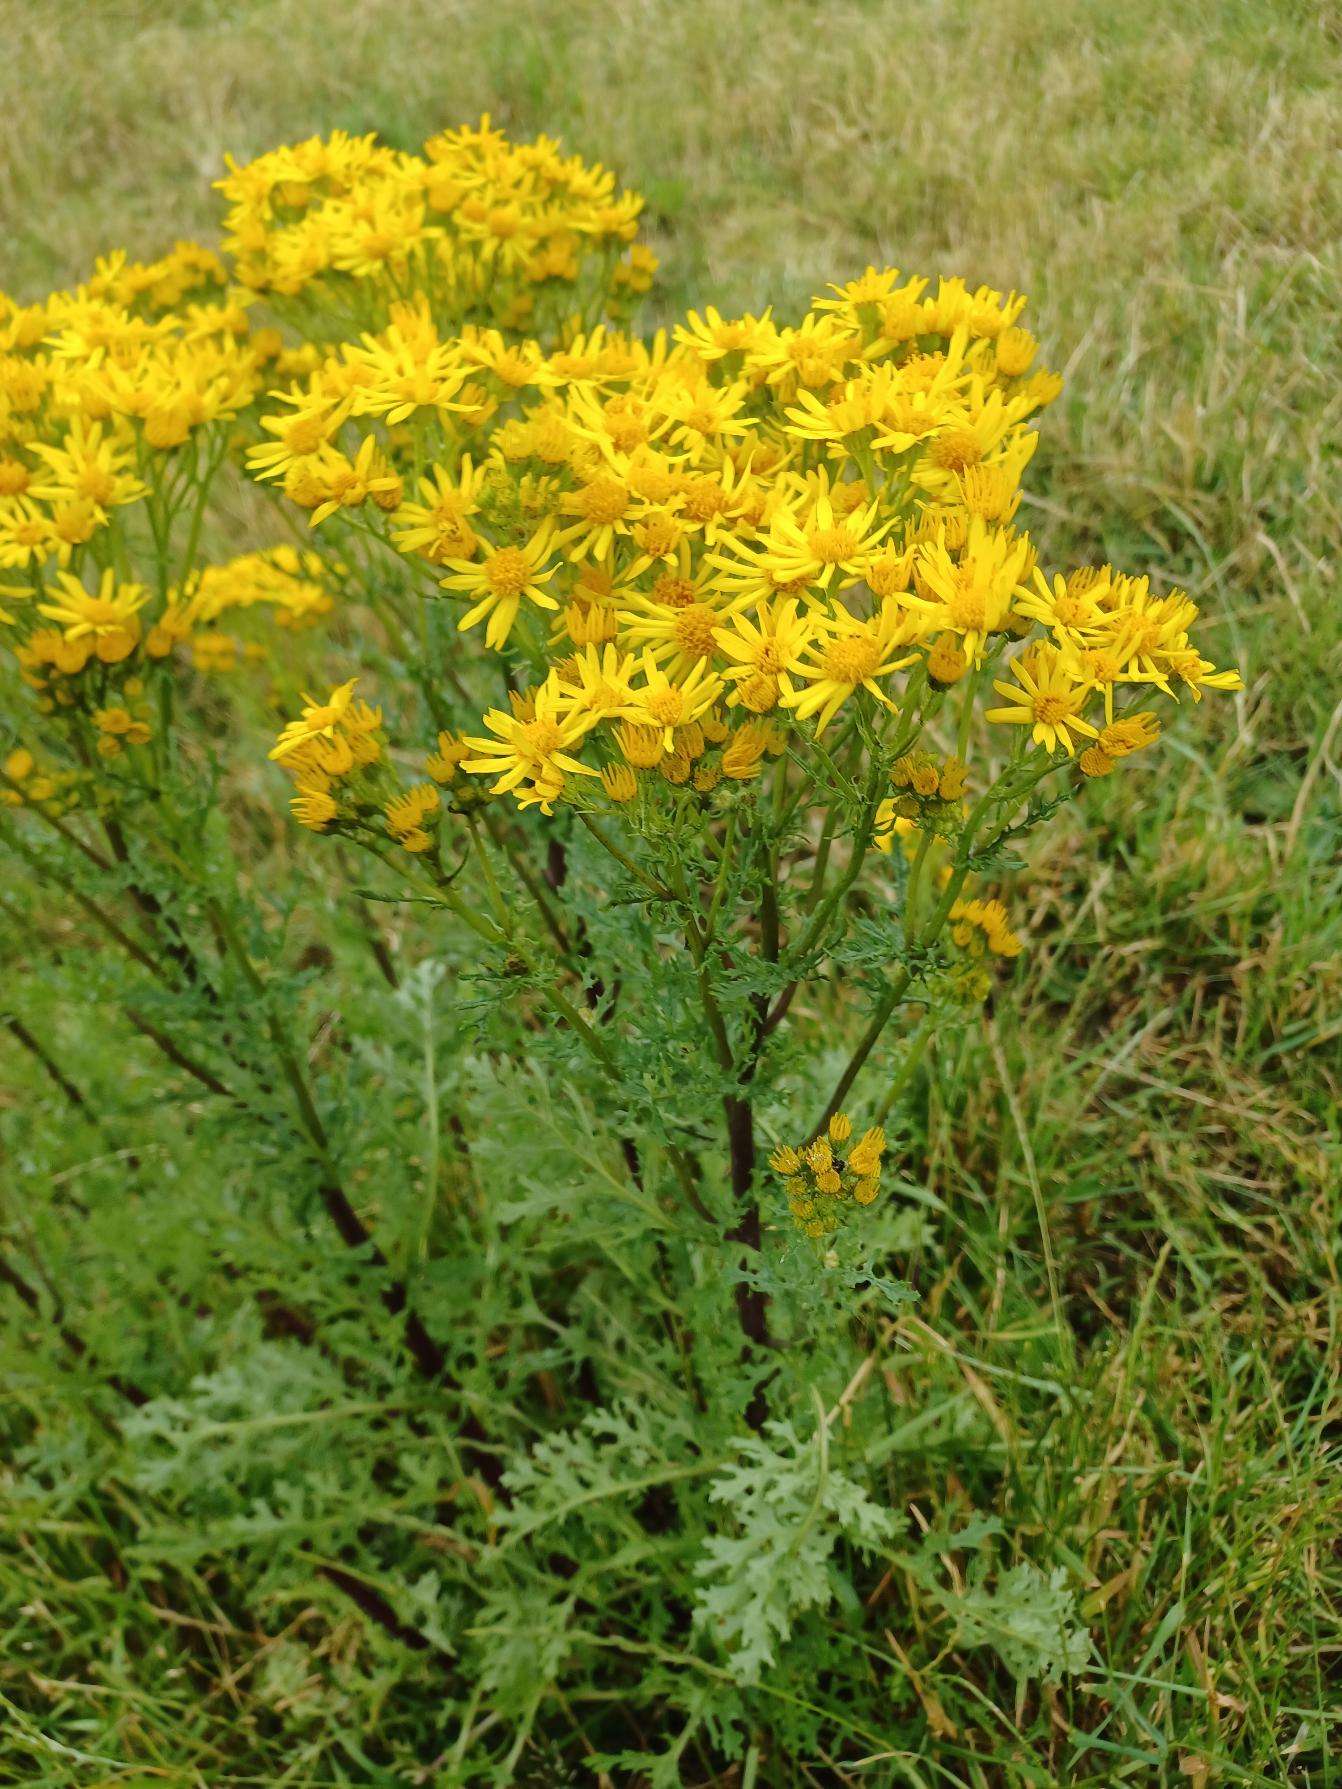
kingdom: Plantae
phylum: Tracheophyta
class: Magnoliopsida
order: Asterales
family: Asteraceae
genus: Jacobaea
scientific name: Jacobaea vulgaris
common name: Eng-brandbæger
